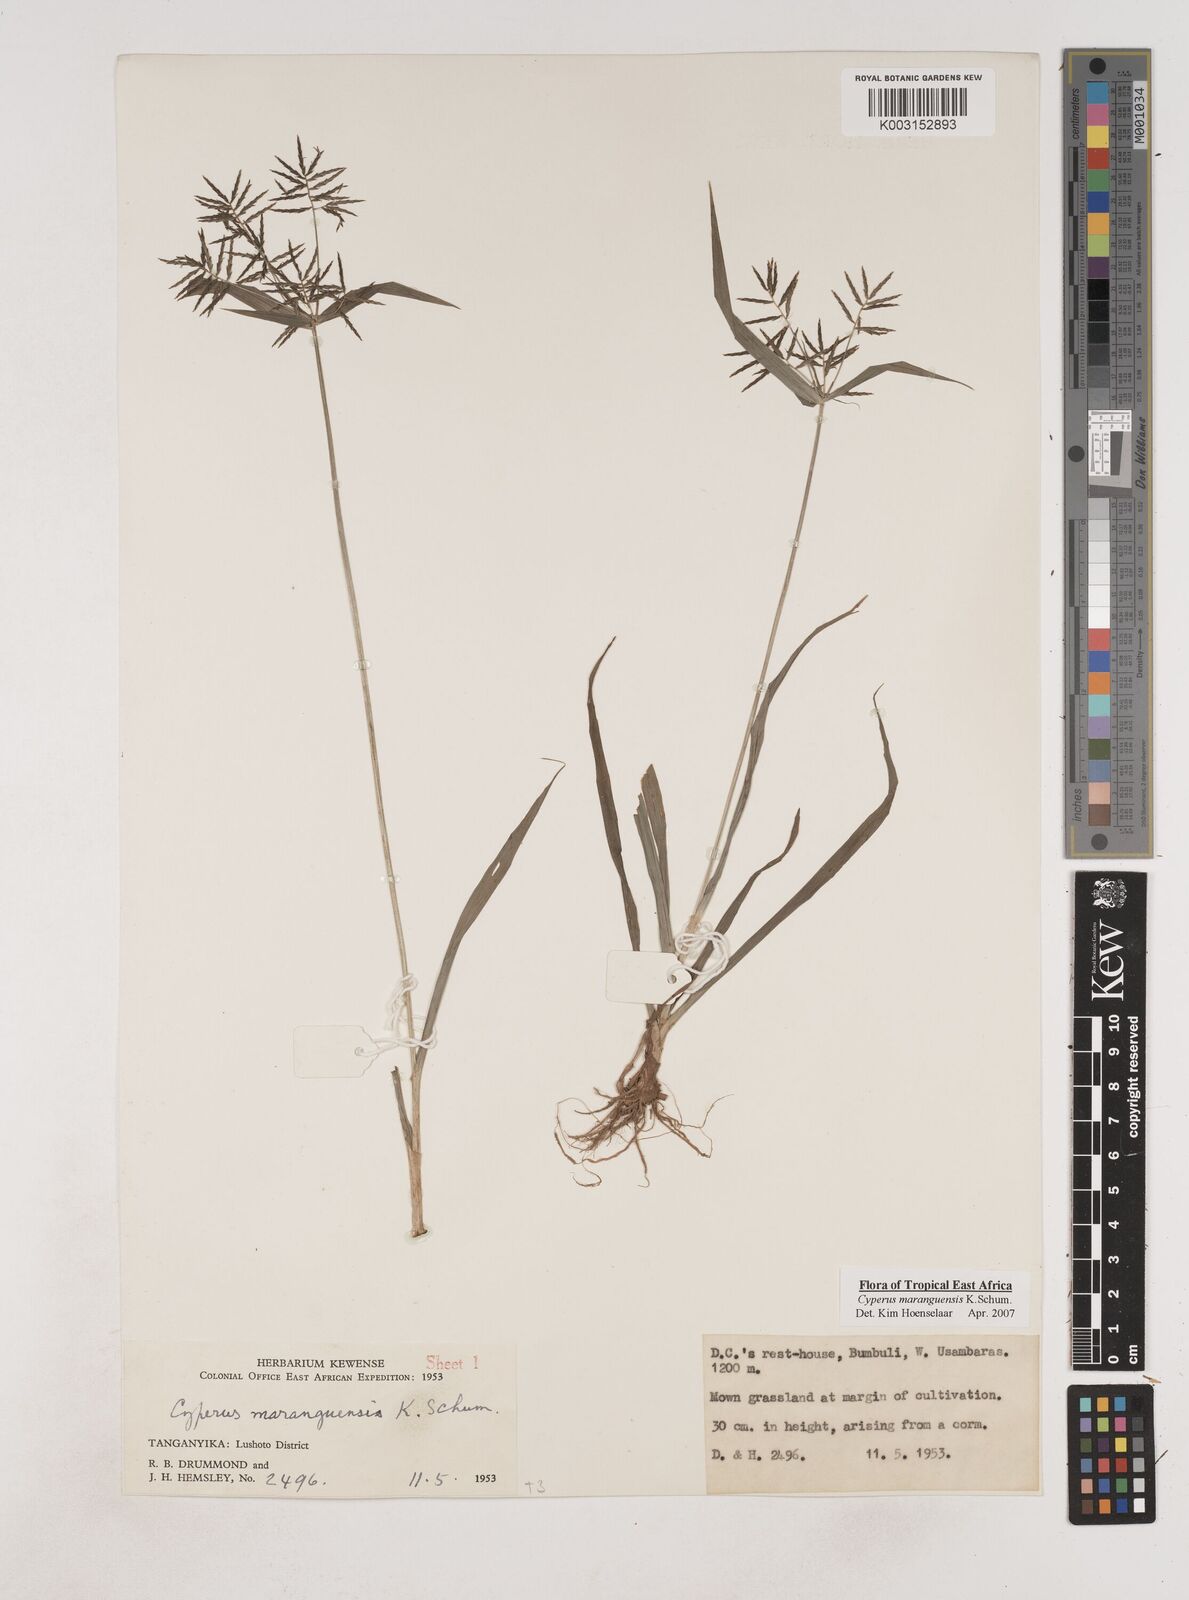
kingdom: Plantae
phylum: Tracheophyta
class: Liliopsida
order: Poales
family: Cyperaceae
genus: Cyperus
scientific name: Cyperus maranguensis
